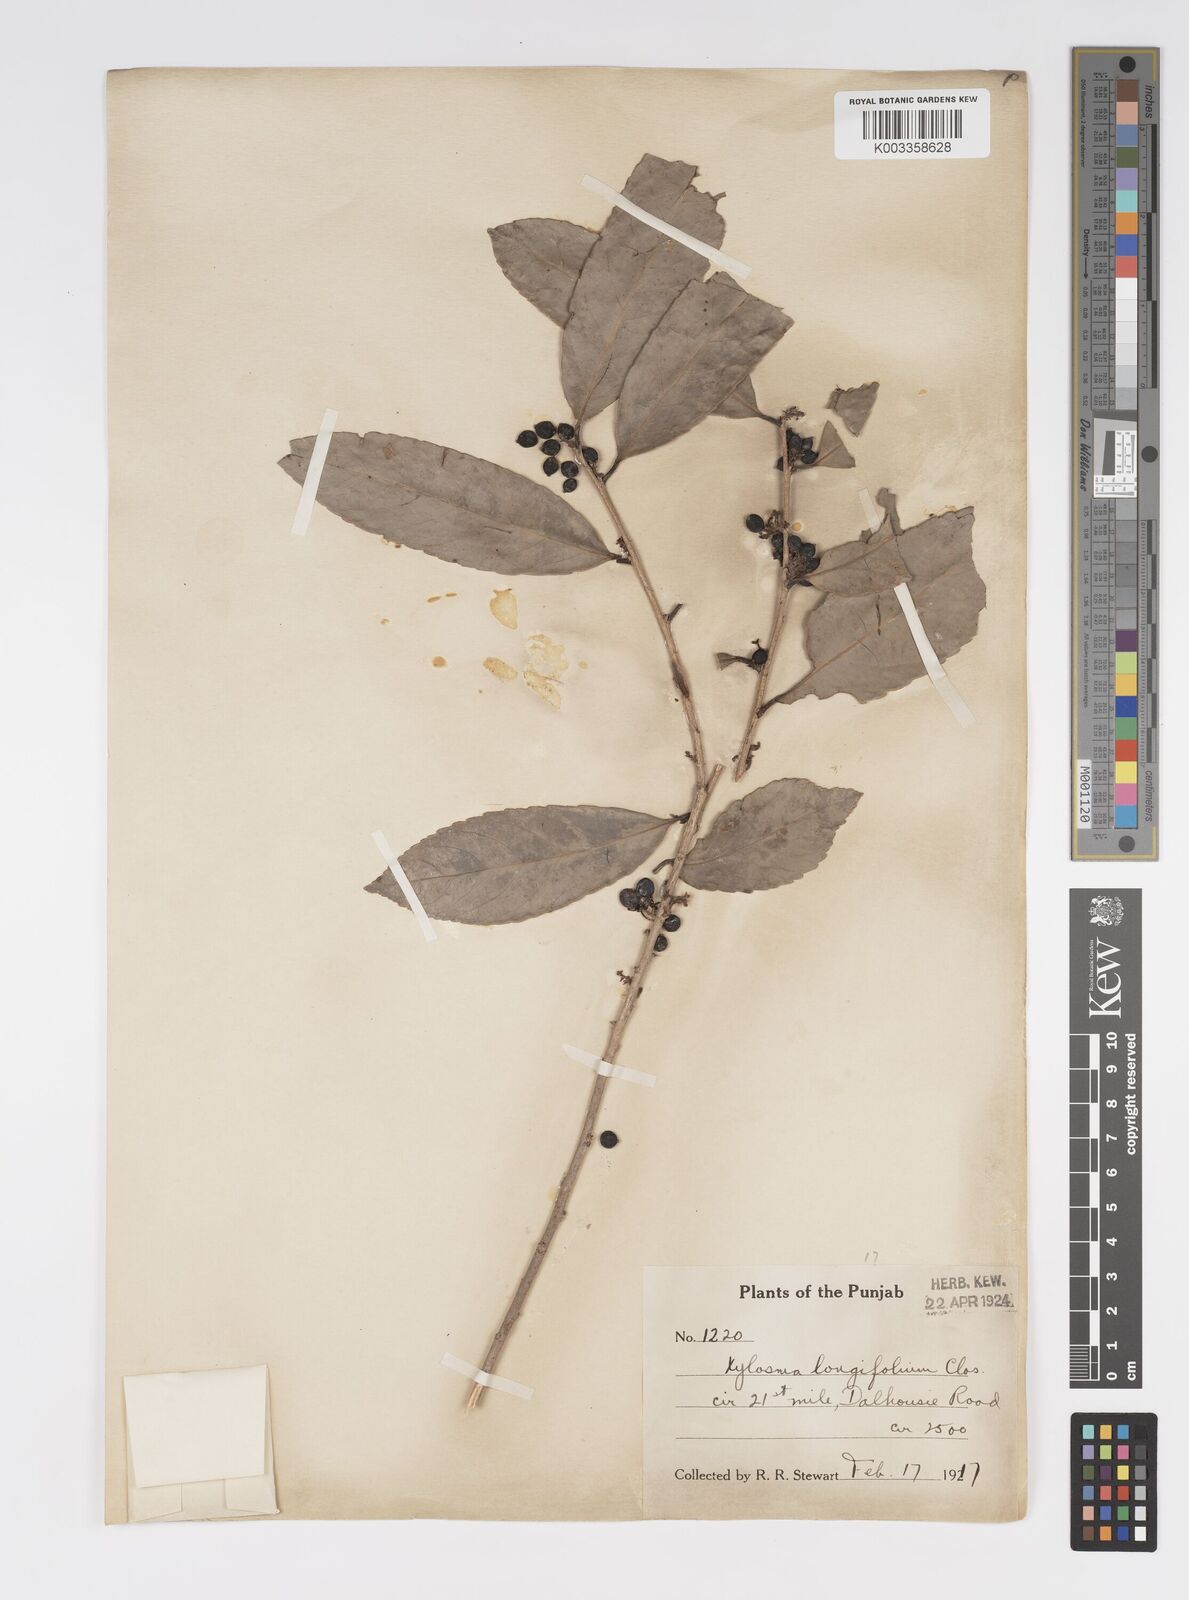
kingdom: Plantae
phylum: Tracheophyta
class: Magnoliopsida
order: Malpighiales
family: Salicaceae
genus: Xylosma
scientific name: Xylosma longifolia
